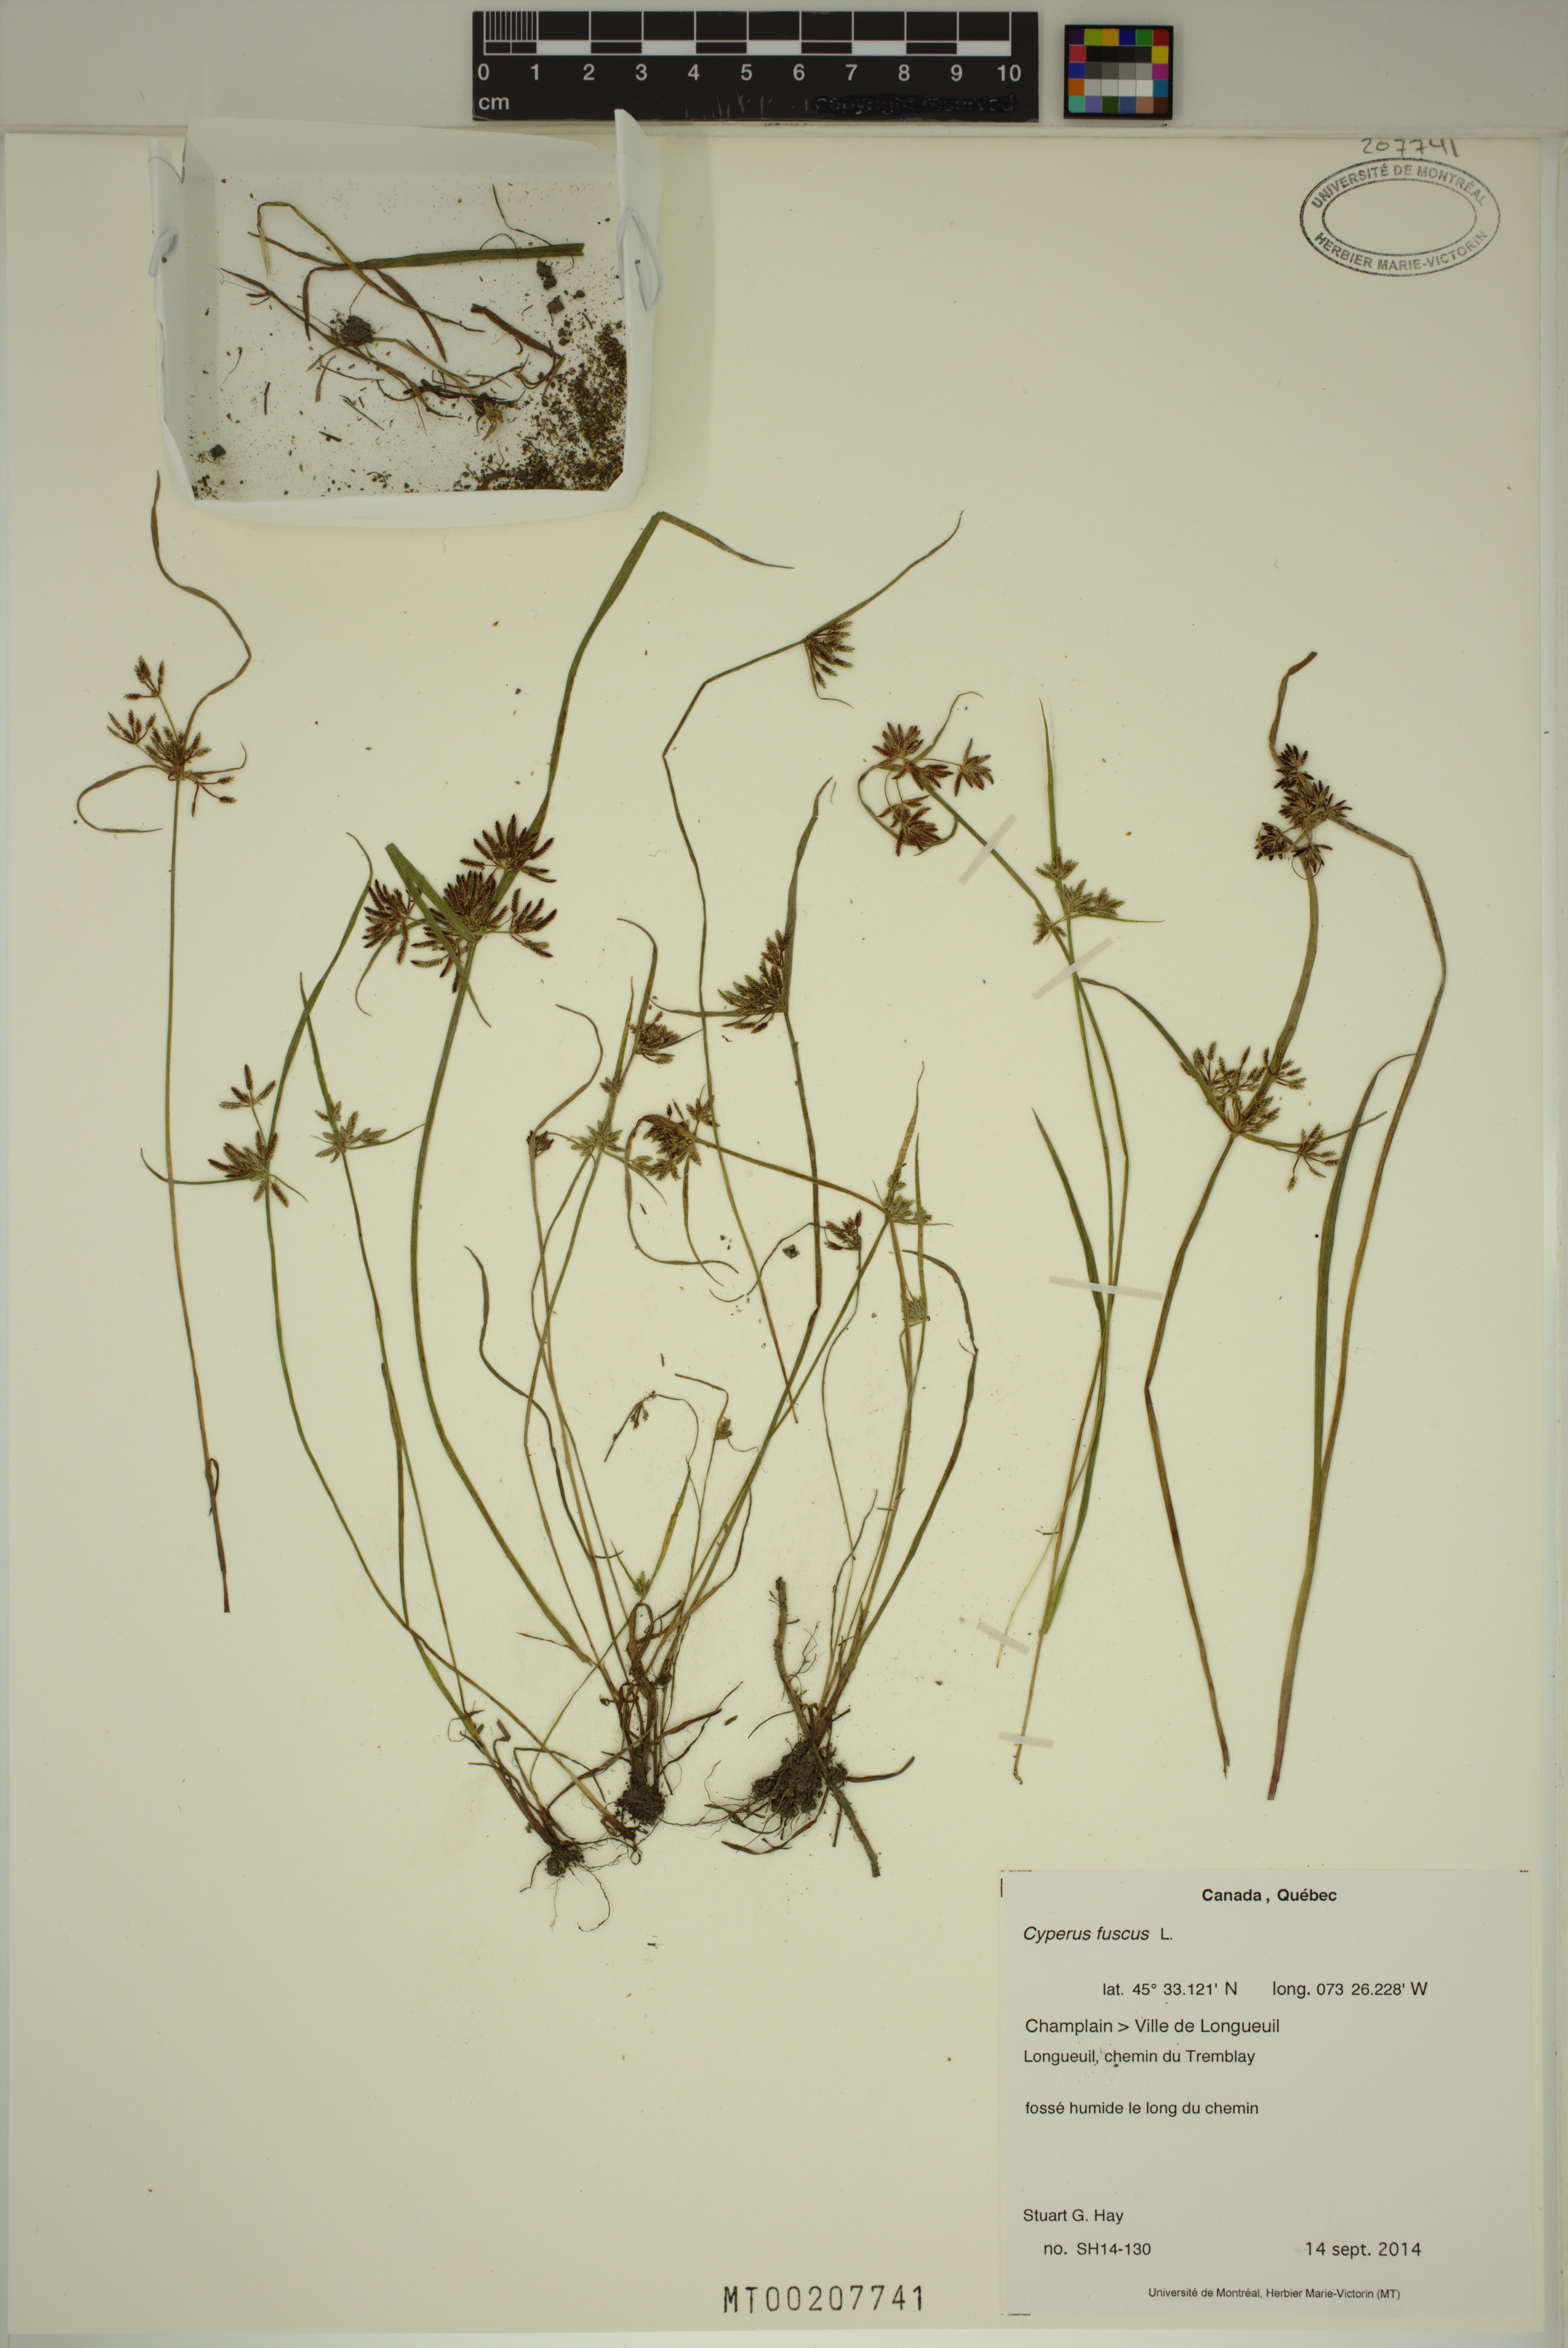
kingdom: Plantae
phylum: Tracheophyta
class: Liliopsida
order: Poales
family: Cyperaceae
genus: Cyperus
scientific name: Cyperus fuscus
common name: Brown galingale
